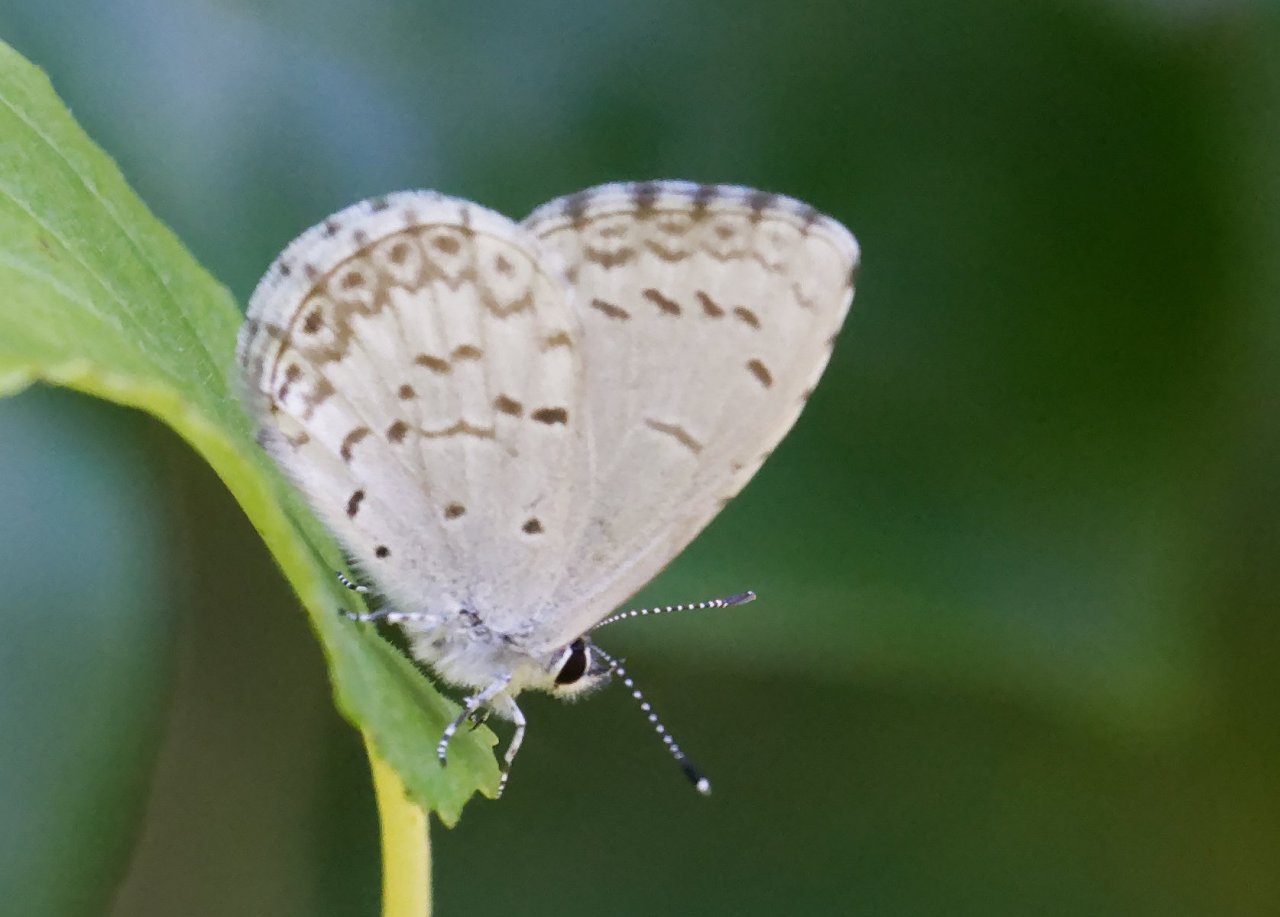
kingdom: Animalia
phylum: Arthropoda
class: Insecta
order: Lepidoptera
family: Lycaenidae
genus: Celastrina
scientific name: Celastrina
